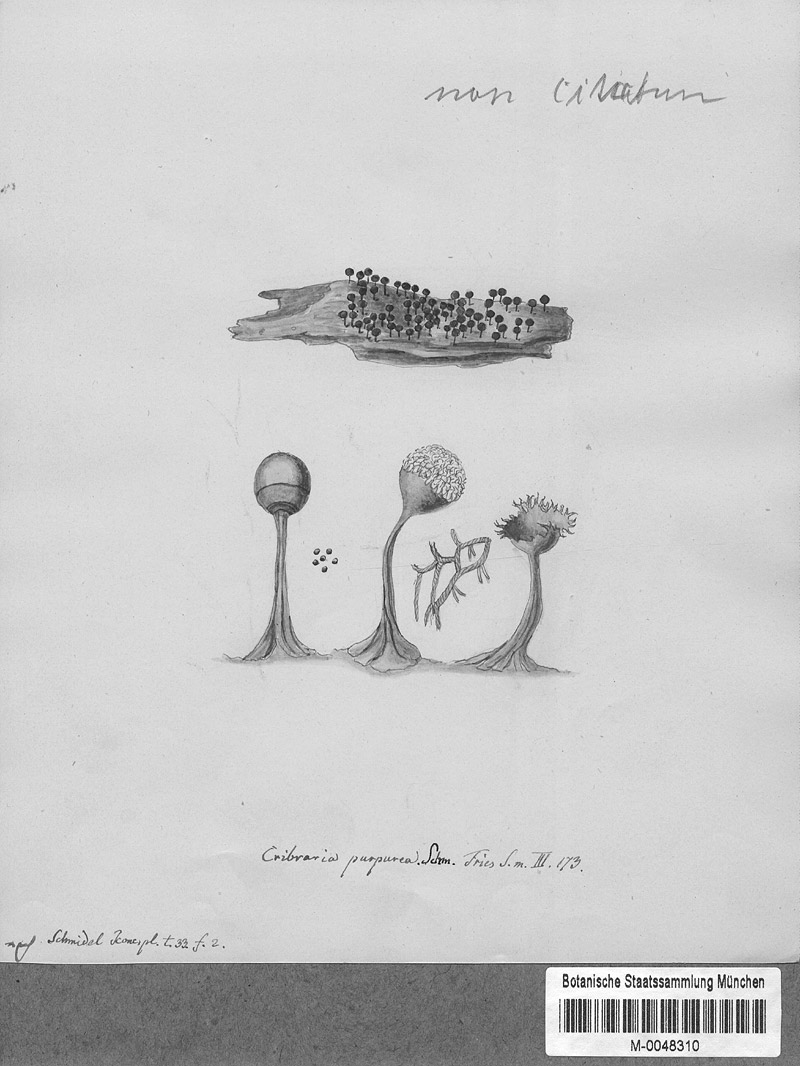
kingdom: Protozoa
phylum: Mycetozoa
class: Myxomycetes
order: Cribrariales
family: Cribrariaceae
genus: Cribraria
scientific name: Cribraria purpurea
